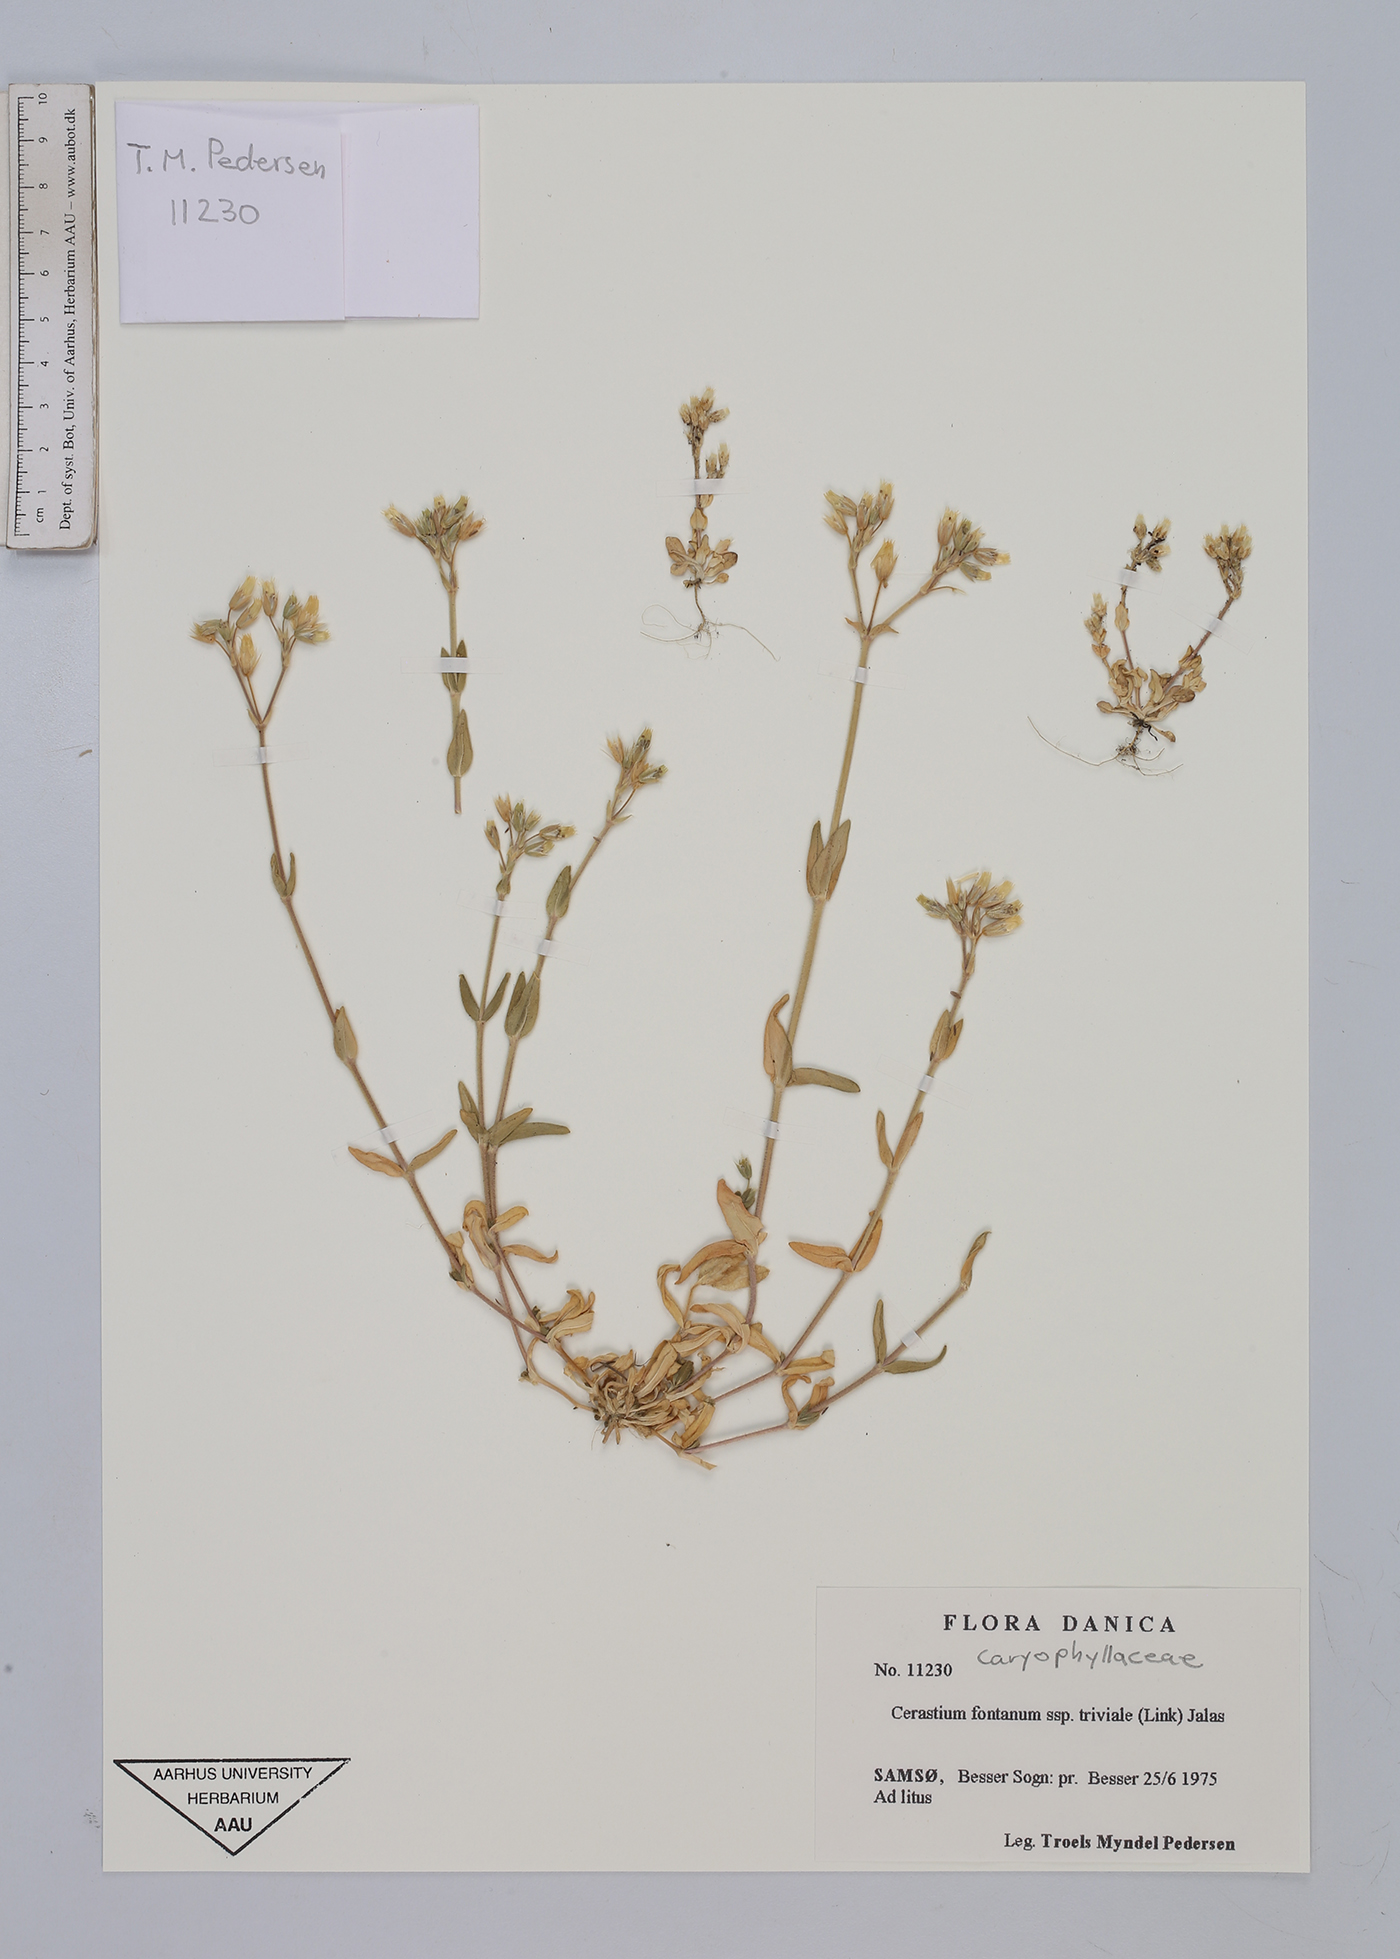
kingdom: Plantae
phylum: Tracheophyta
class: Magnoliopsida
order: Caryophyllales
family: Caryophyllaceae
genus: Cerastium
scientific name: Cerastium glomeratum
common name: Sticky chickweed
